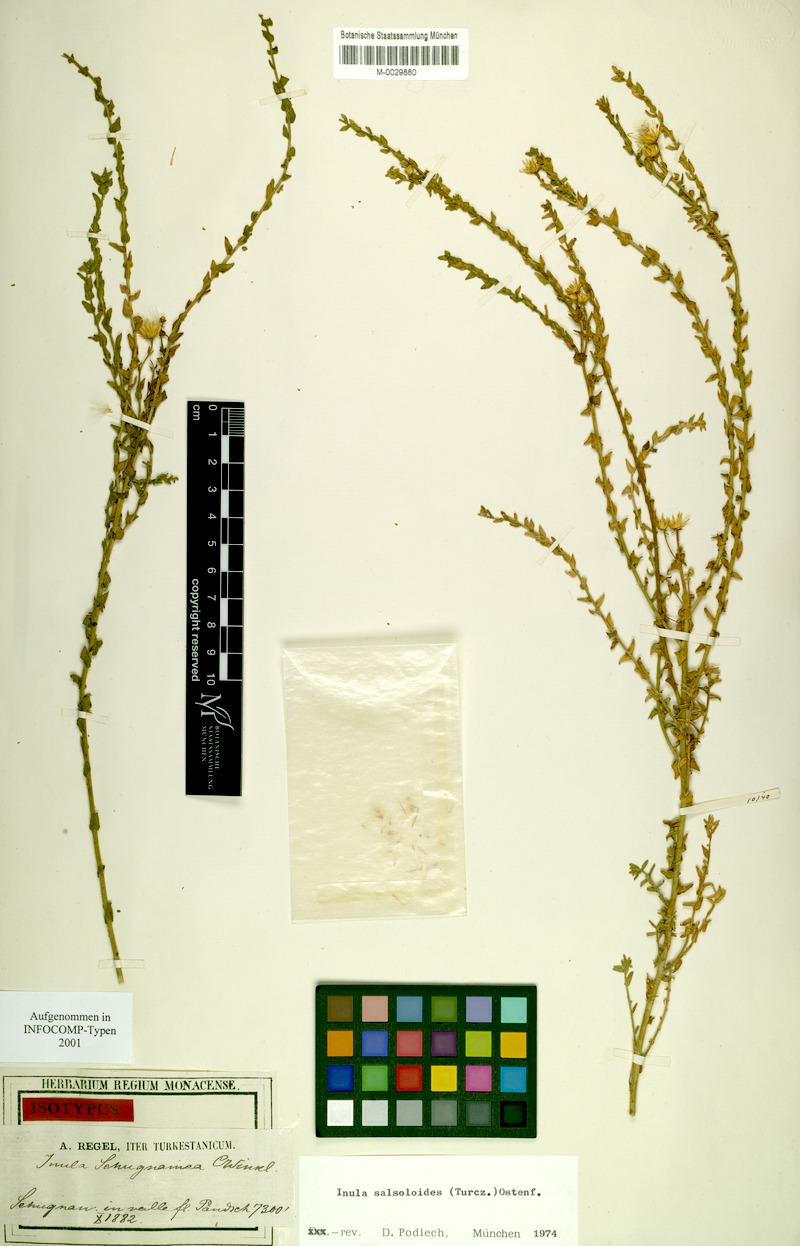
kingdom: Plantae
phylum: Tracheophyta
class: Magnoliopsida
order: Asterales
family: Asteraceae
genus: Inula
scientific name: Inula salsoloides
